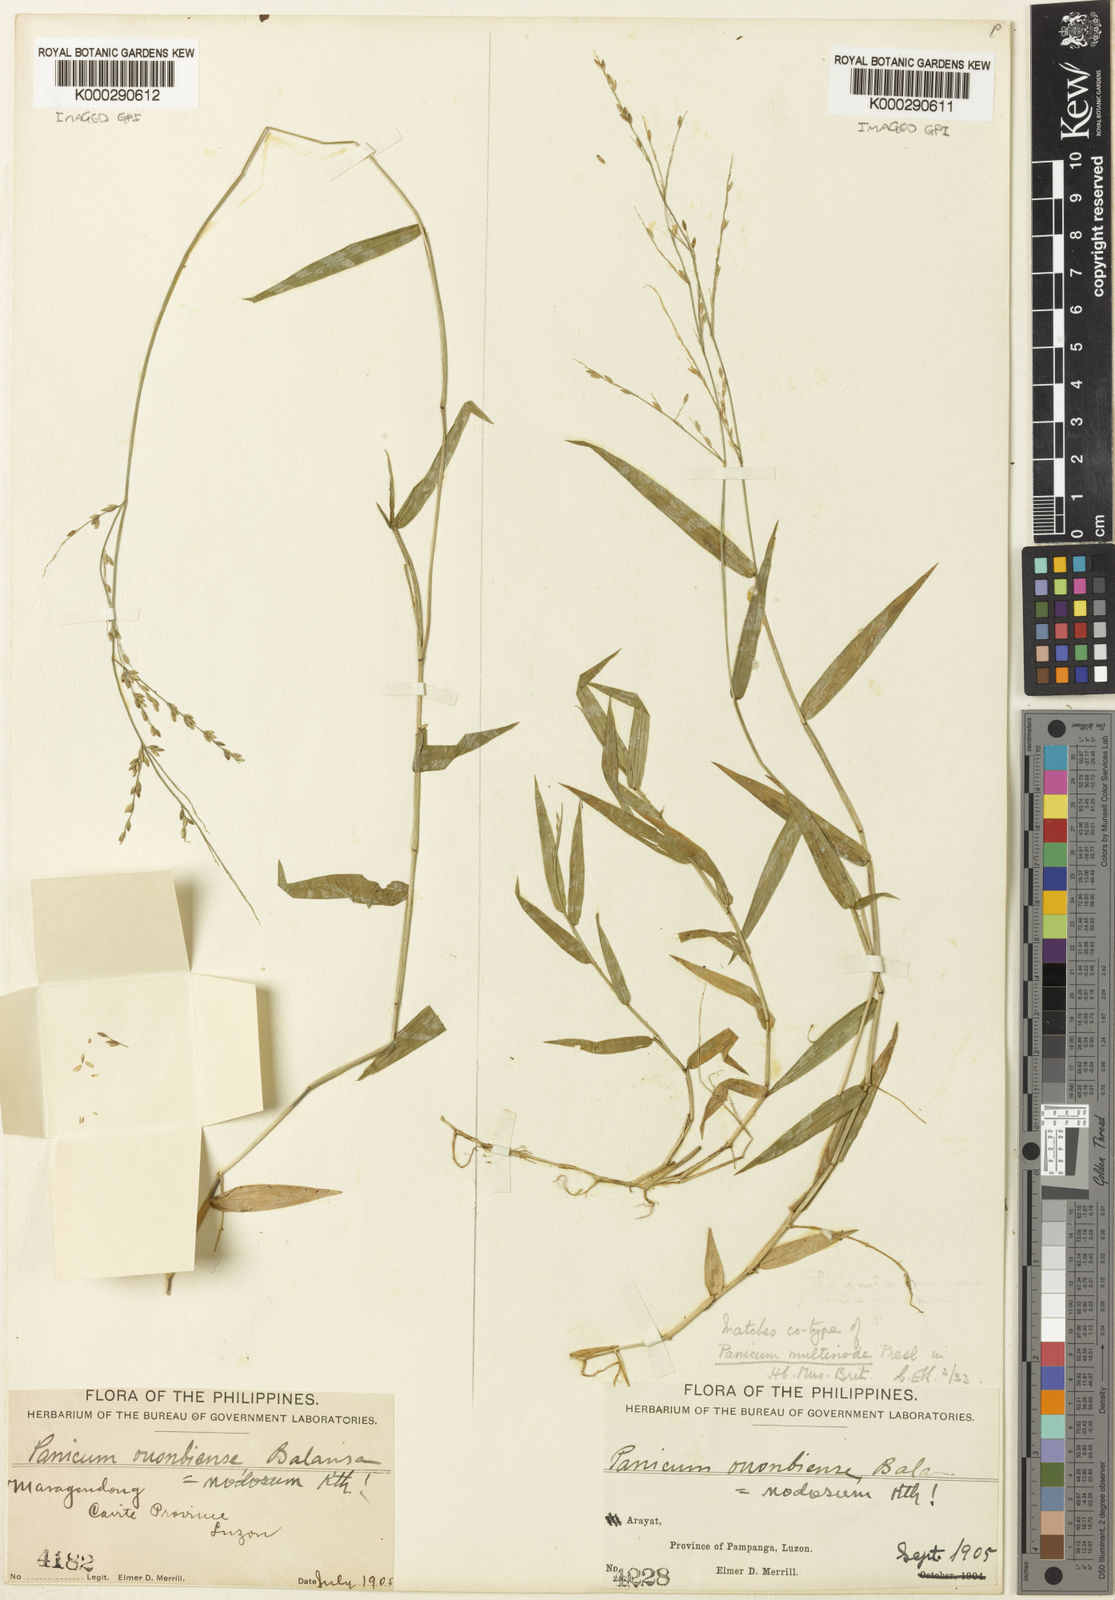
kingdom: Plantae
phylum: Tracheophyta
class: Liliopsida
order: Poales
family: Poaceae
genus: Ottochloa
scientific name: Ottochloa nodosa
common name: Slender-panic grass
